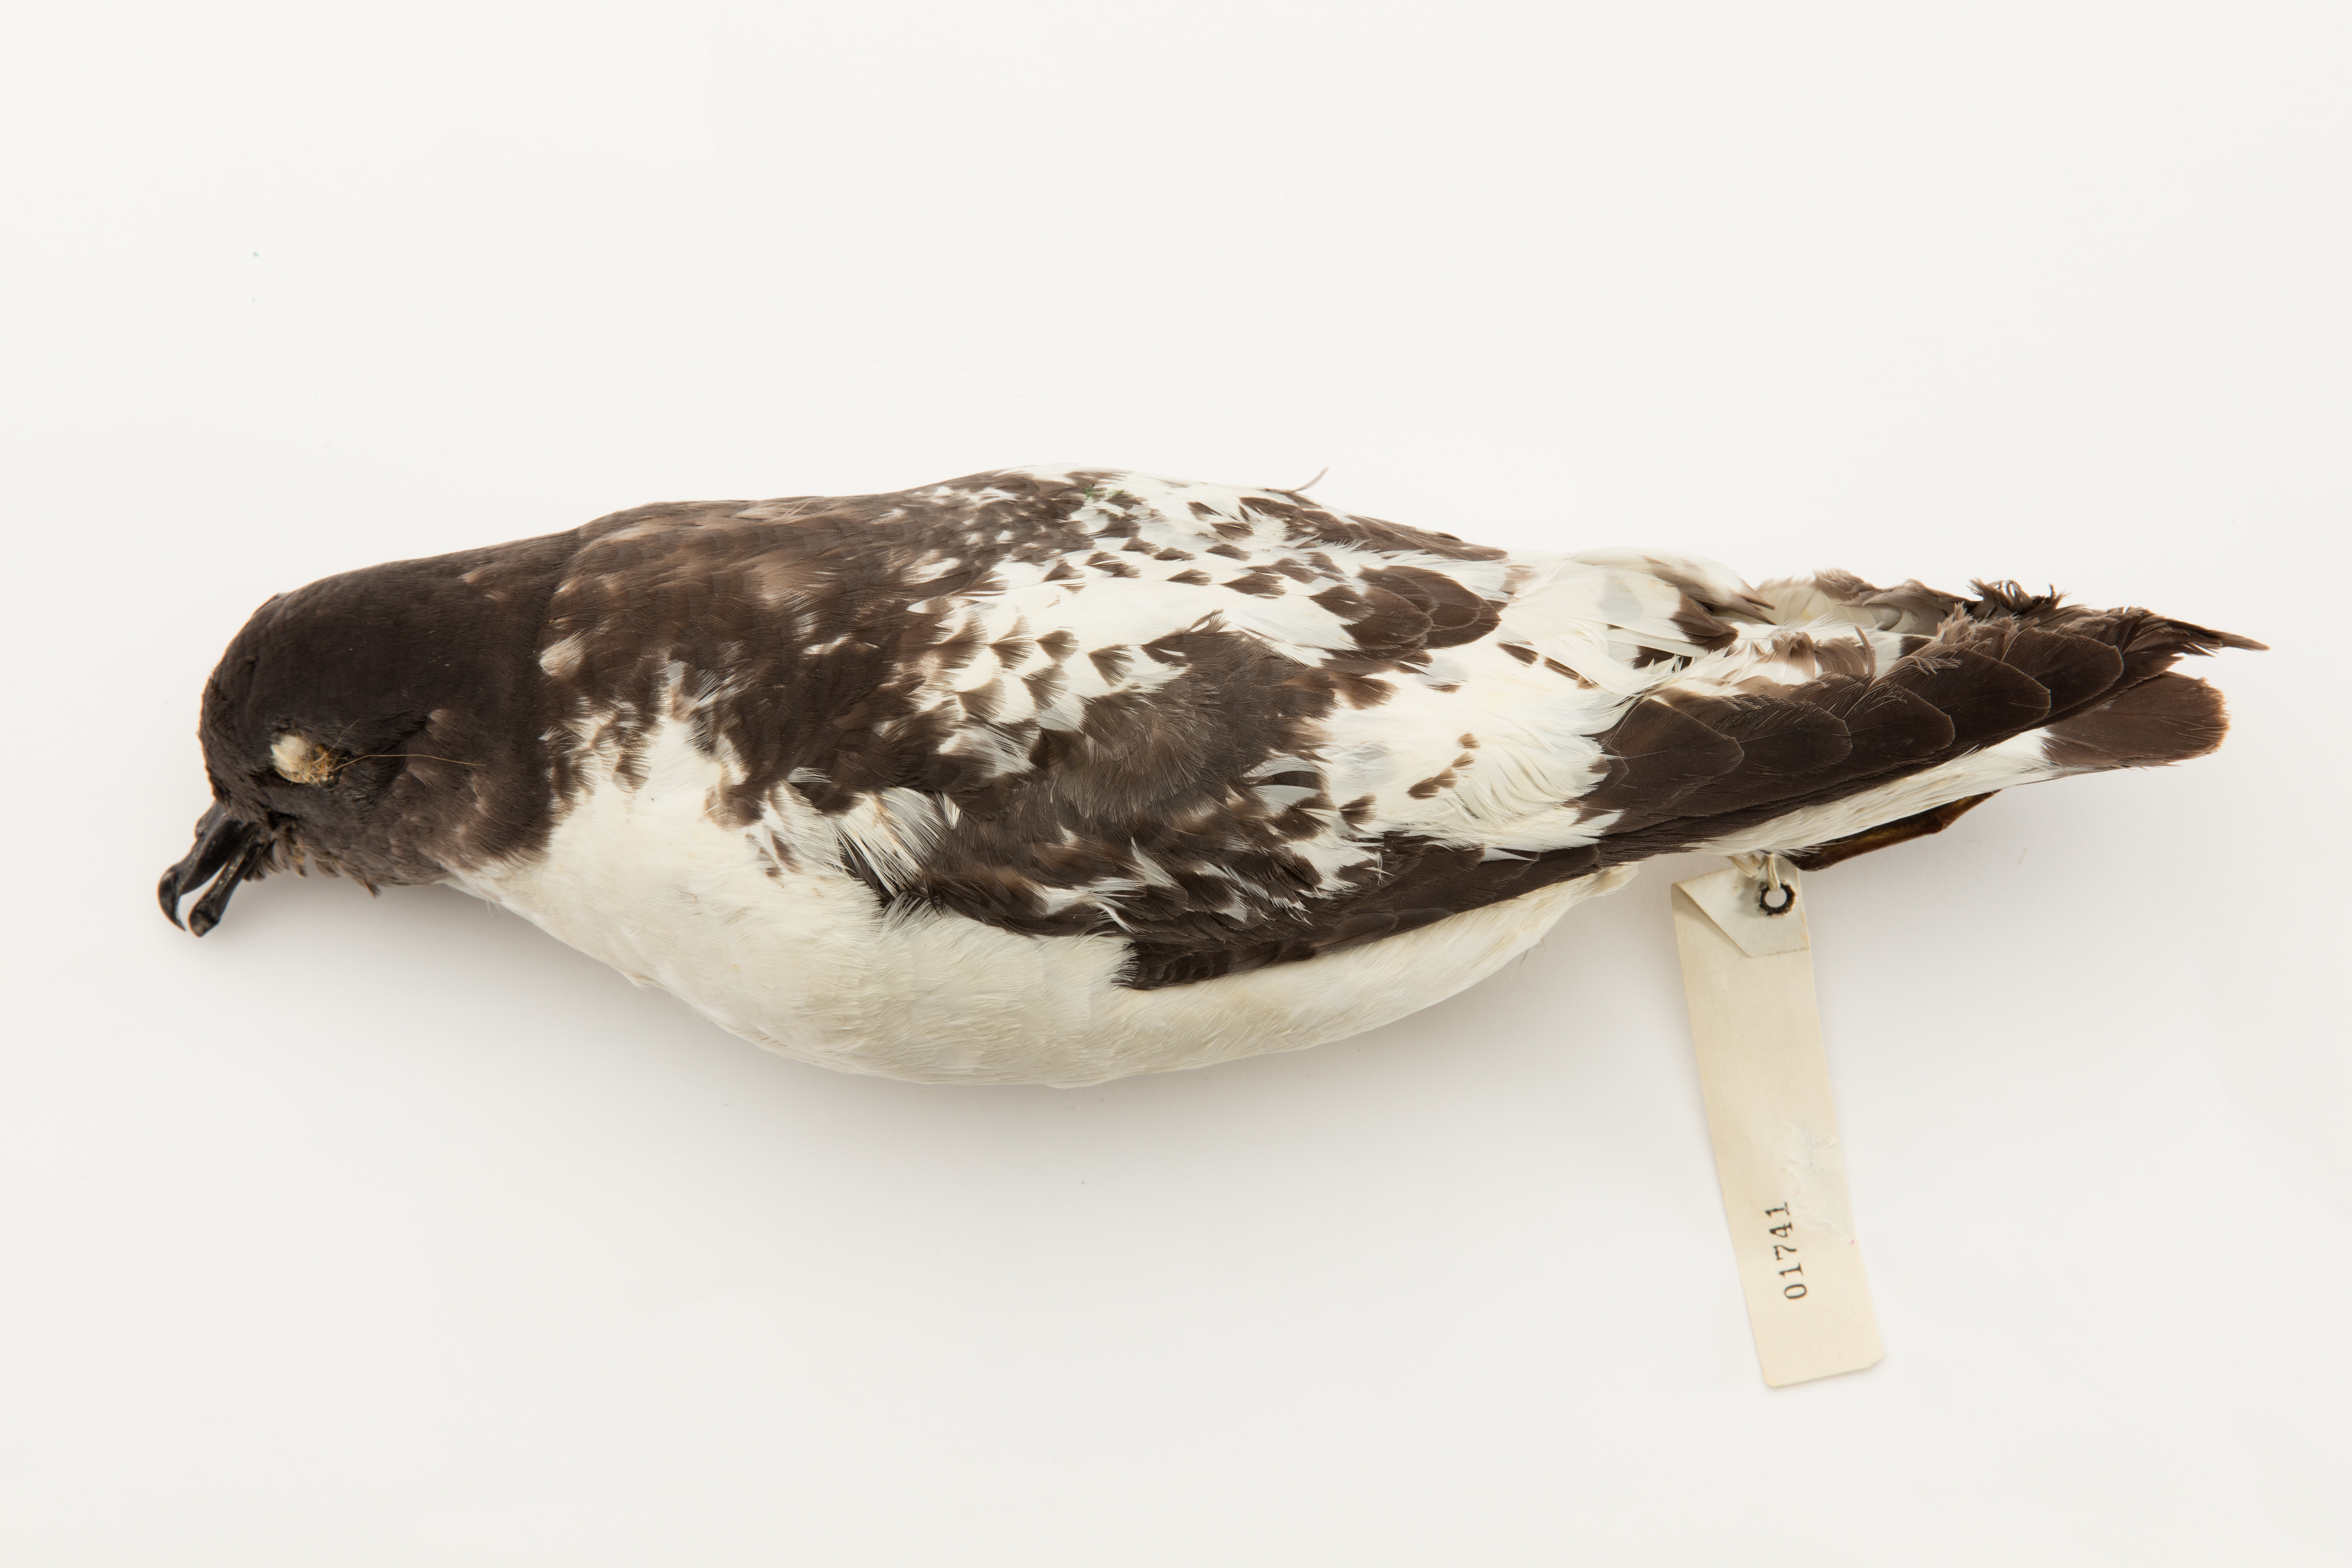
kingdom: Animalia
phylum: Chordata
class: Aves
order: Procellariiformes
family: Procellariidae
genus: Daption
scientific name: Daption capense
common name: Cape petrel
